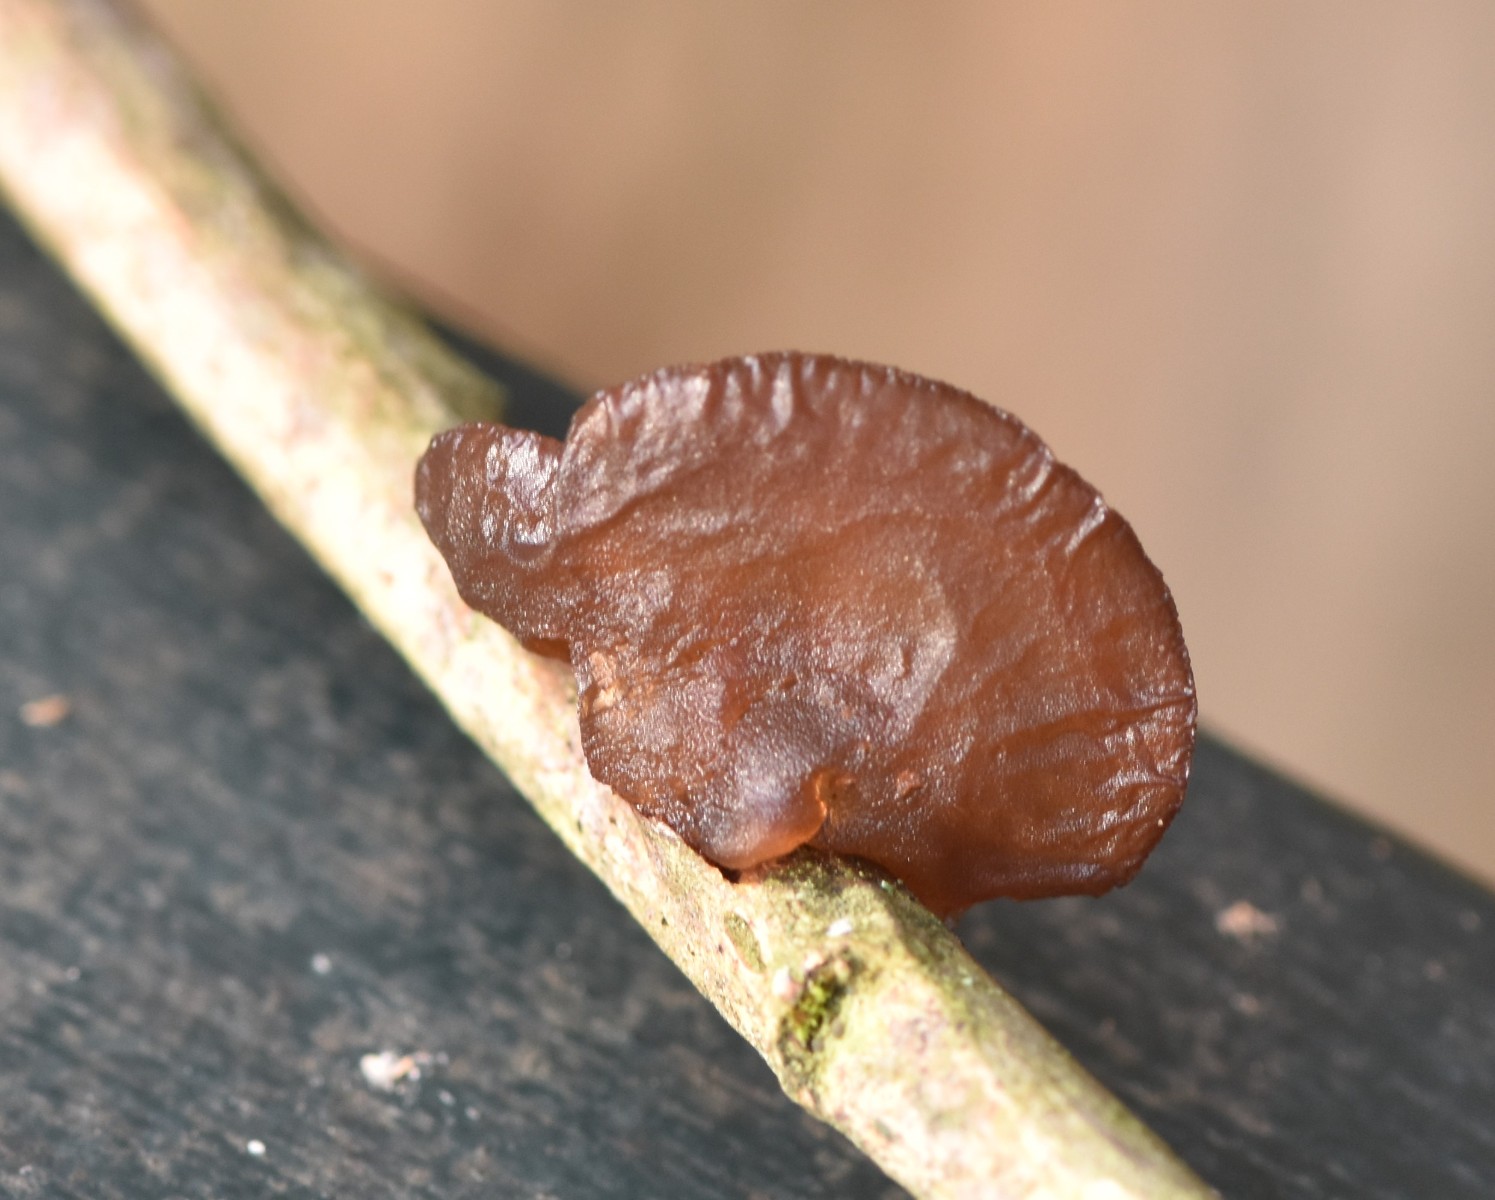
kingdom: Fungi
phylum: Basidiomycota
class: Agaricomycetes
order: Auriculariales
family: Auriculariaceae
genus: Exidia
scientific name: Exidia recisa
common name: pile-bævretop
